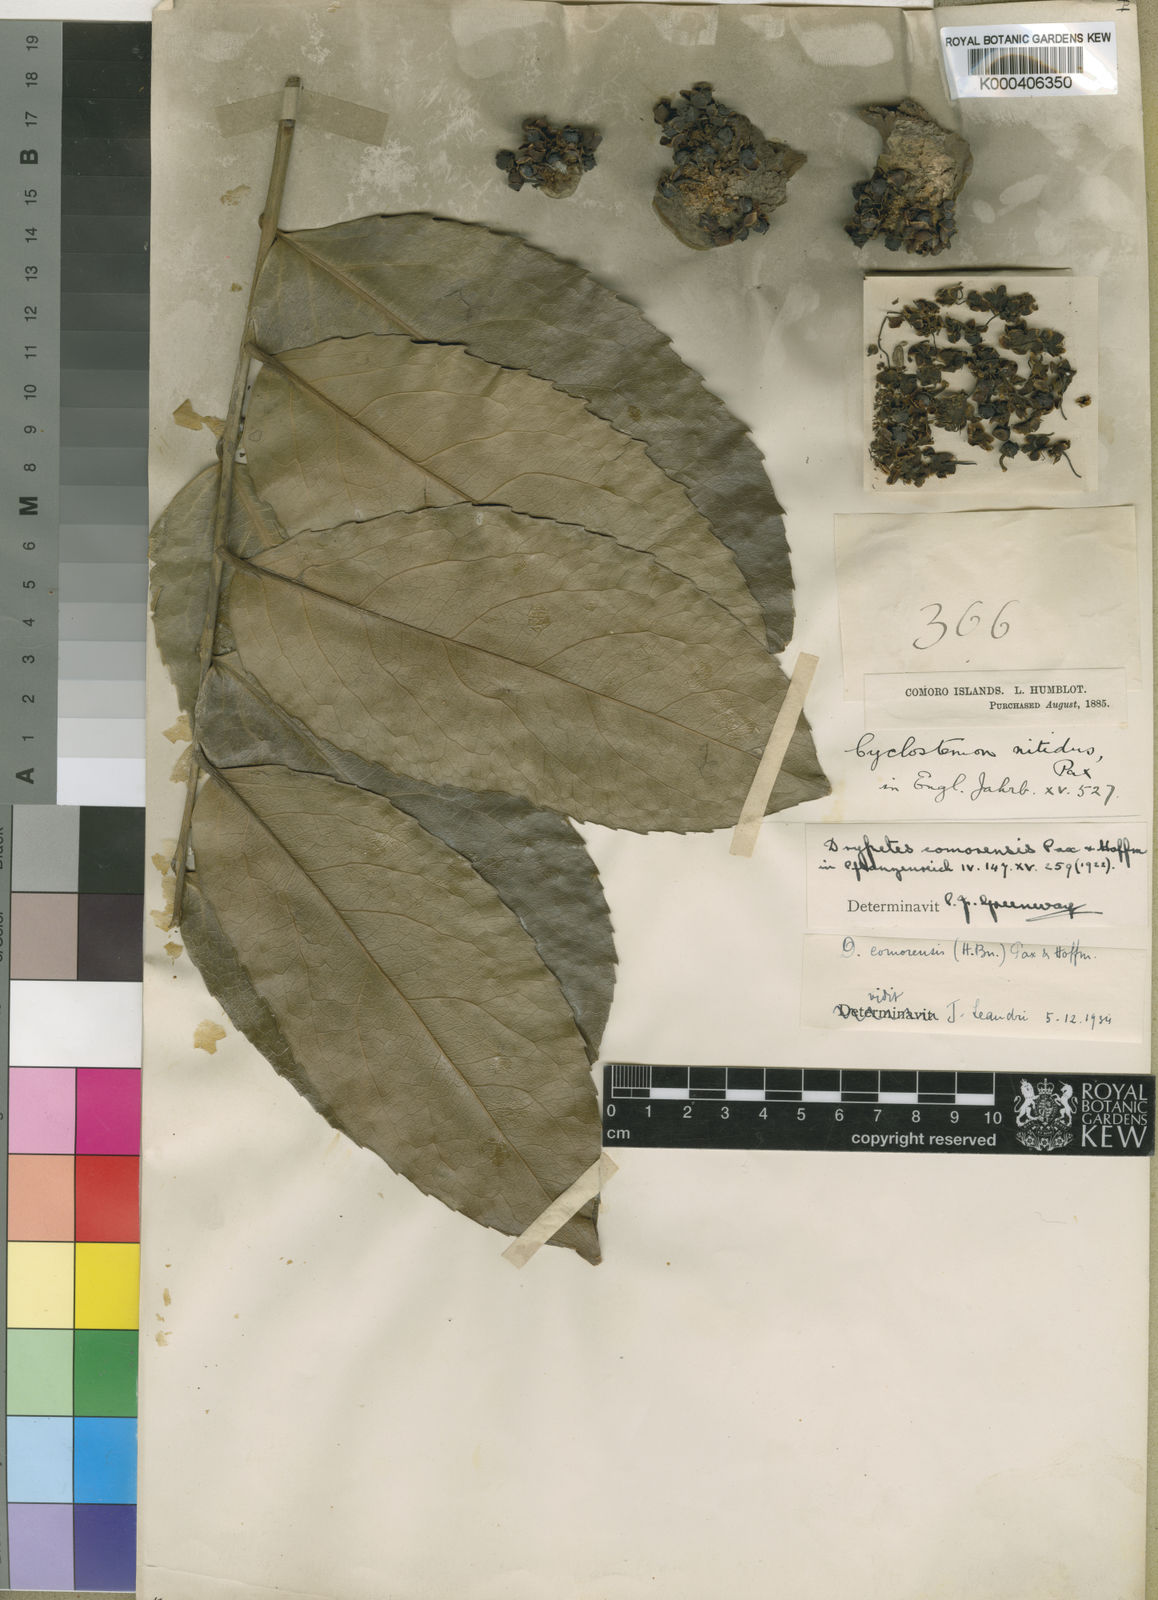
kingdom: Plantae
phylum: Tracheophyta
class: Magnoliopsida
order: Malpighiales
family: Putranjivaceae
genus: Drypetes
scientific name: Drypetes comorensis
